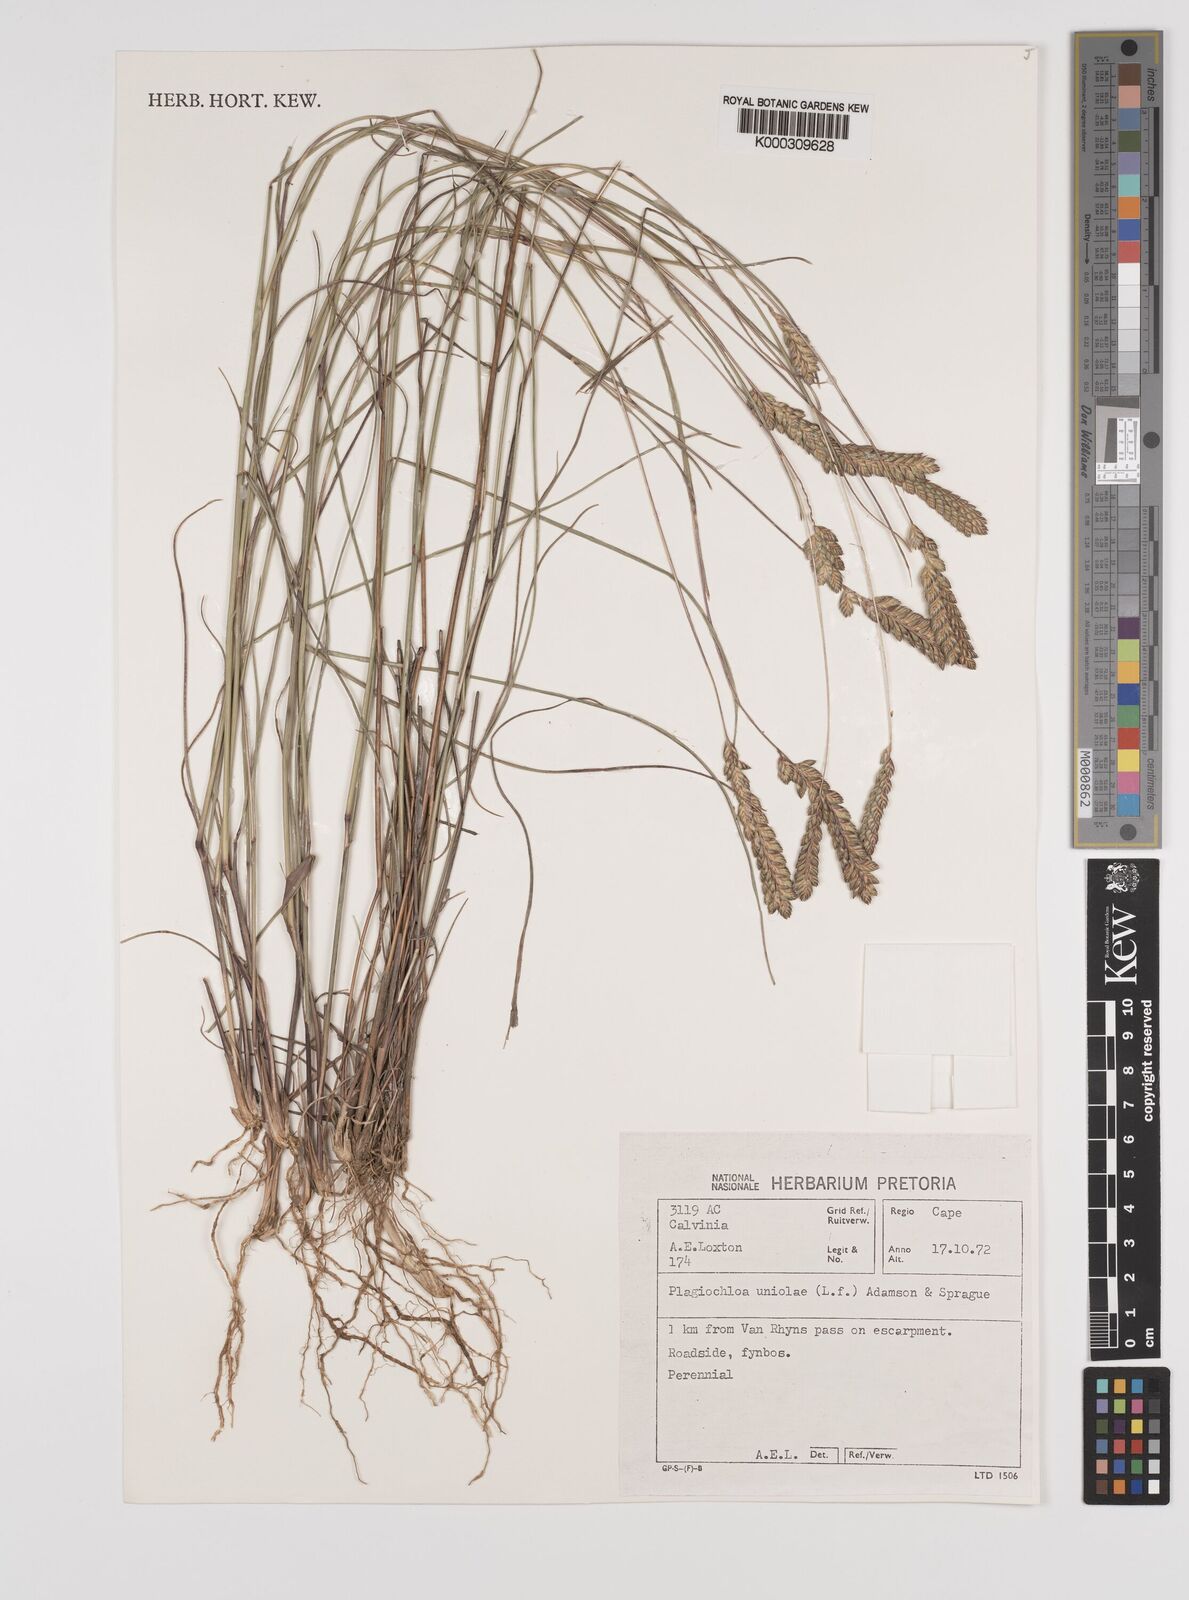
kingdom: Plantae
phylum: Tracheophyta
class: Liliopsida
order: Poales
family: Poaceae
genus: Tribolium
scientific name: Tribolium uniolae
